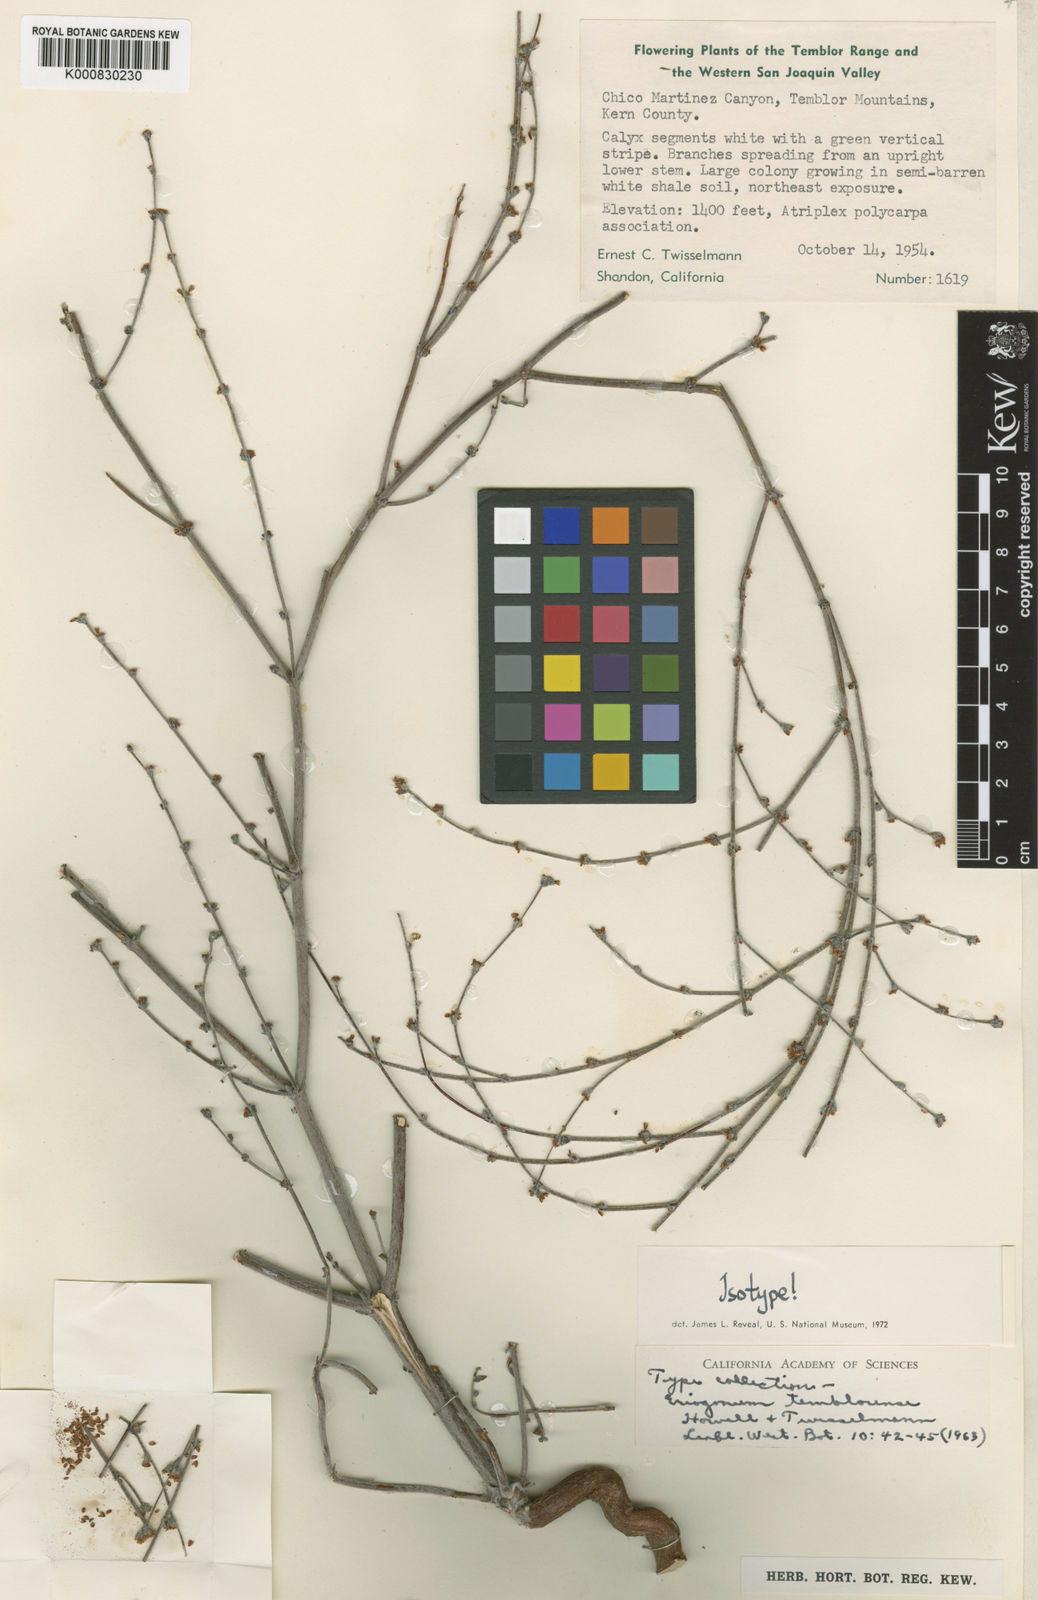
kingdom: Plantae
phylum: Tracheophyta
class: Magnoliopsida
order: Caryophyllales
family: Polygonaceae
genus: Eriogonum
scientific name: Eriogonum temblorense
